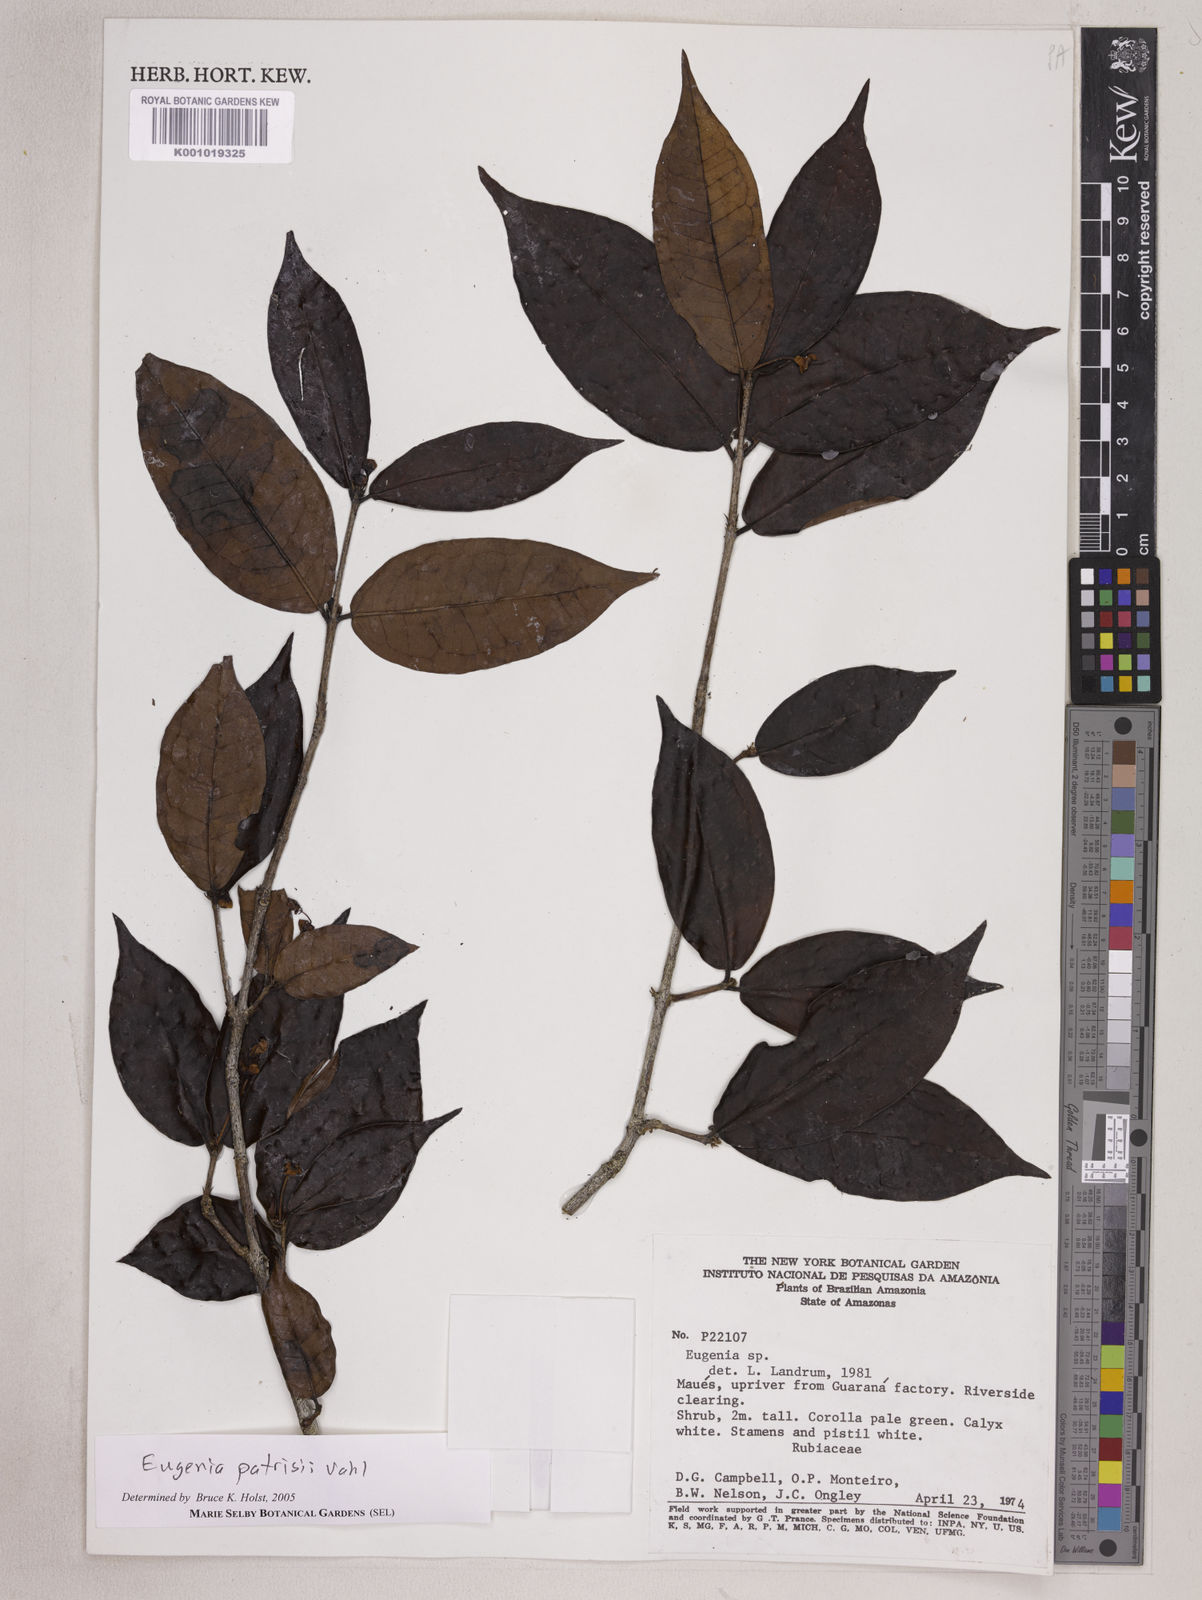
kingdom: Plantae
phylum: Tracheophyta
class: Magnoliopsida
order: Myrtales
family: Myrtaceae
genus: Eugenia
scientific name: Eugenia patrisii
